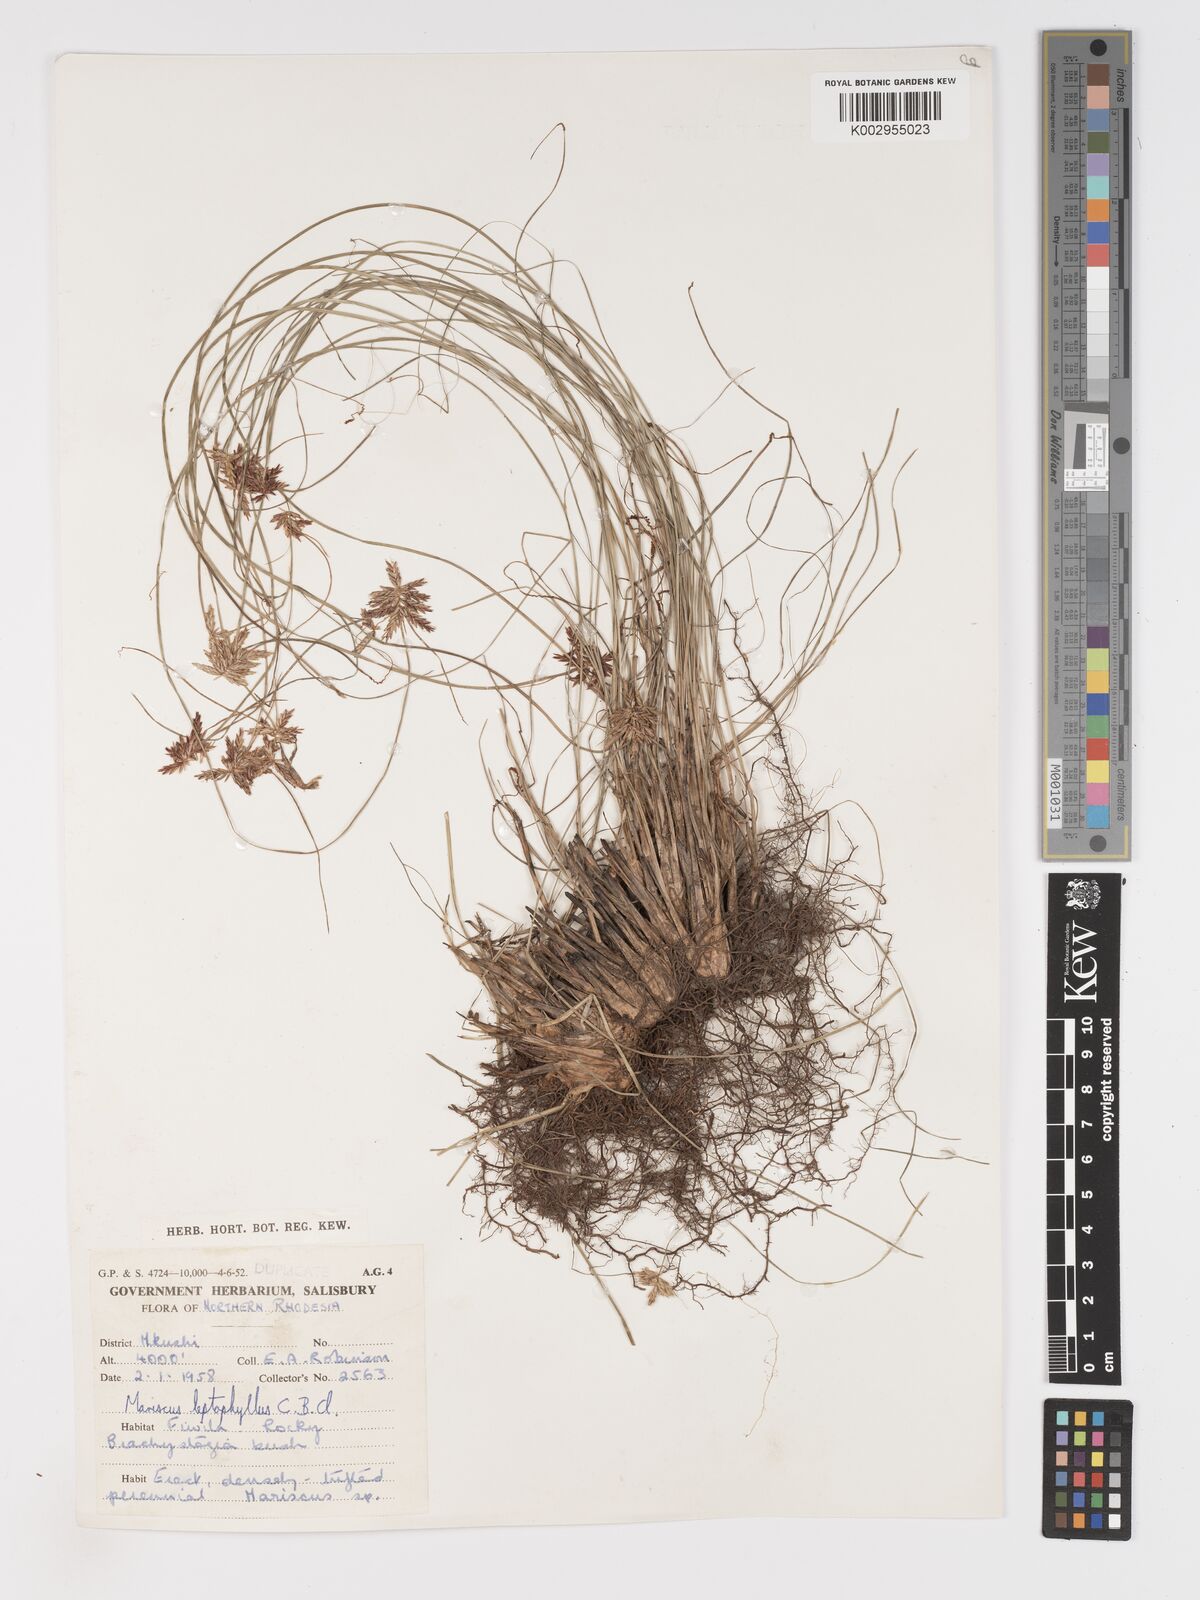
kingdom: Plantae
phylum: Tracheophyta
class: Liliopsida
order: Poales
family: Cyperaceae
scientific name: Cyperaceae
